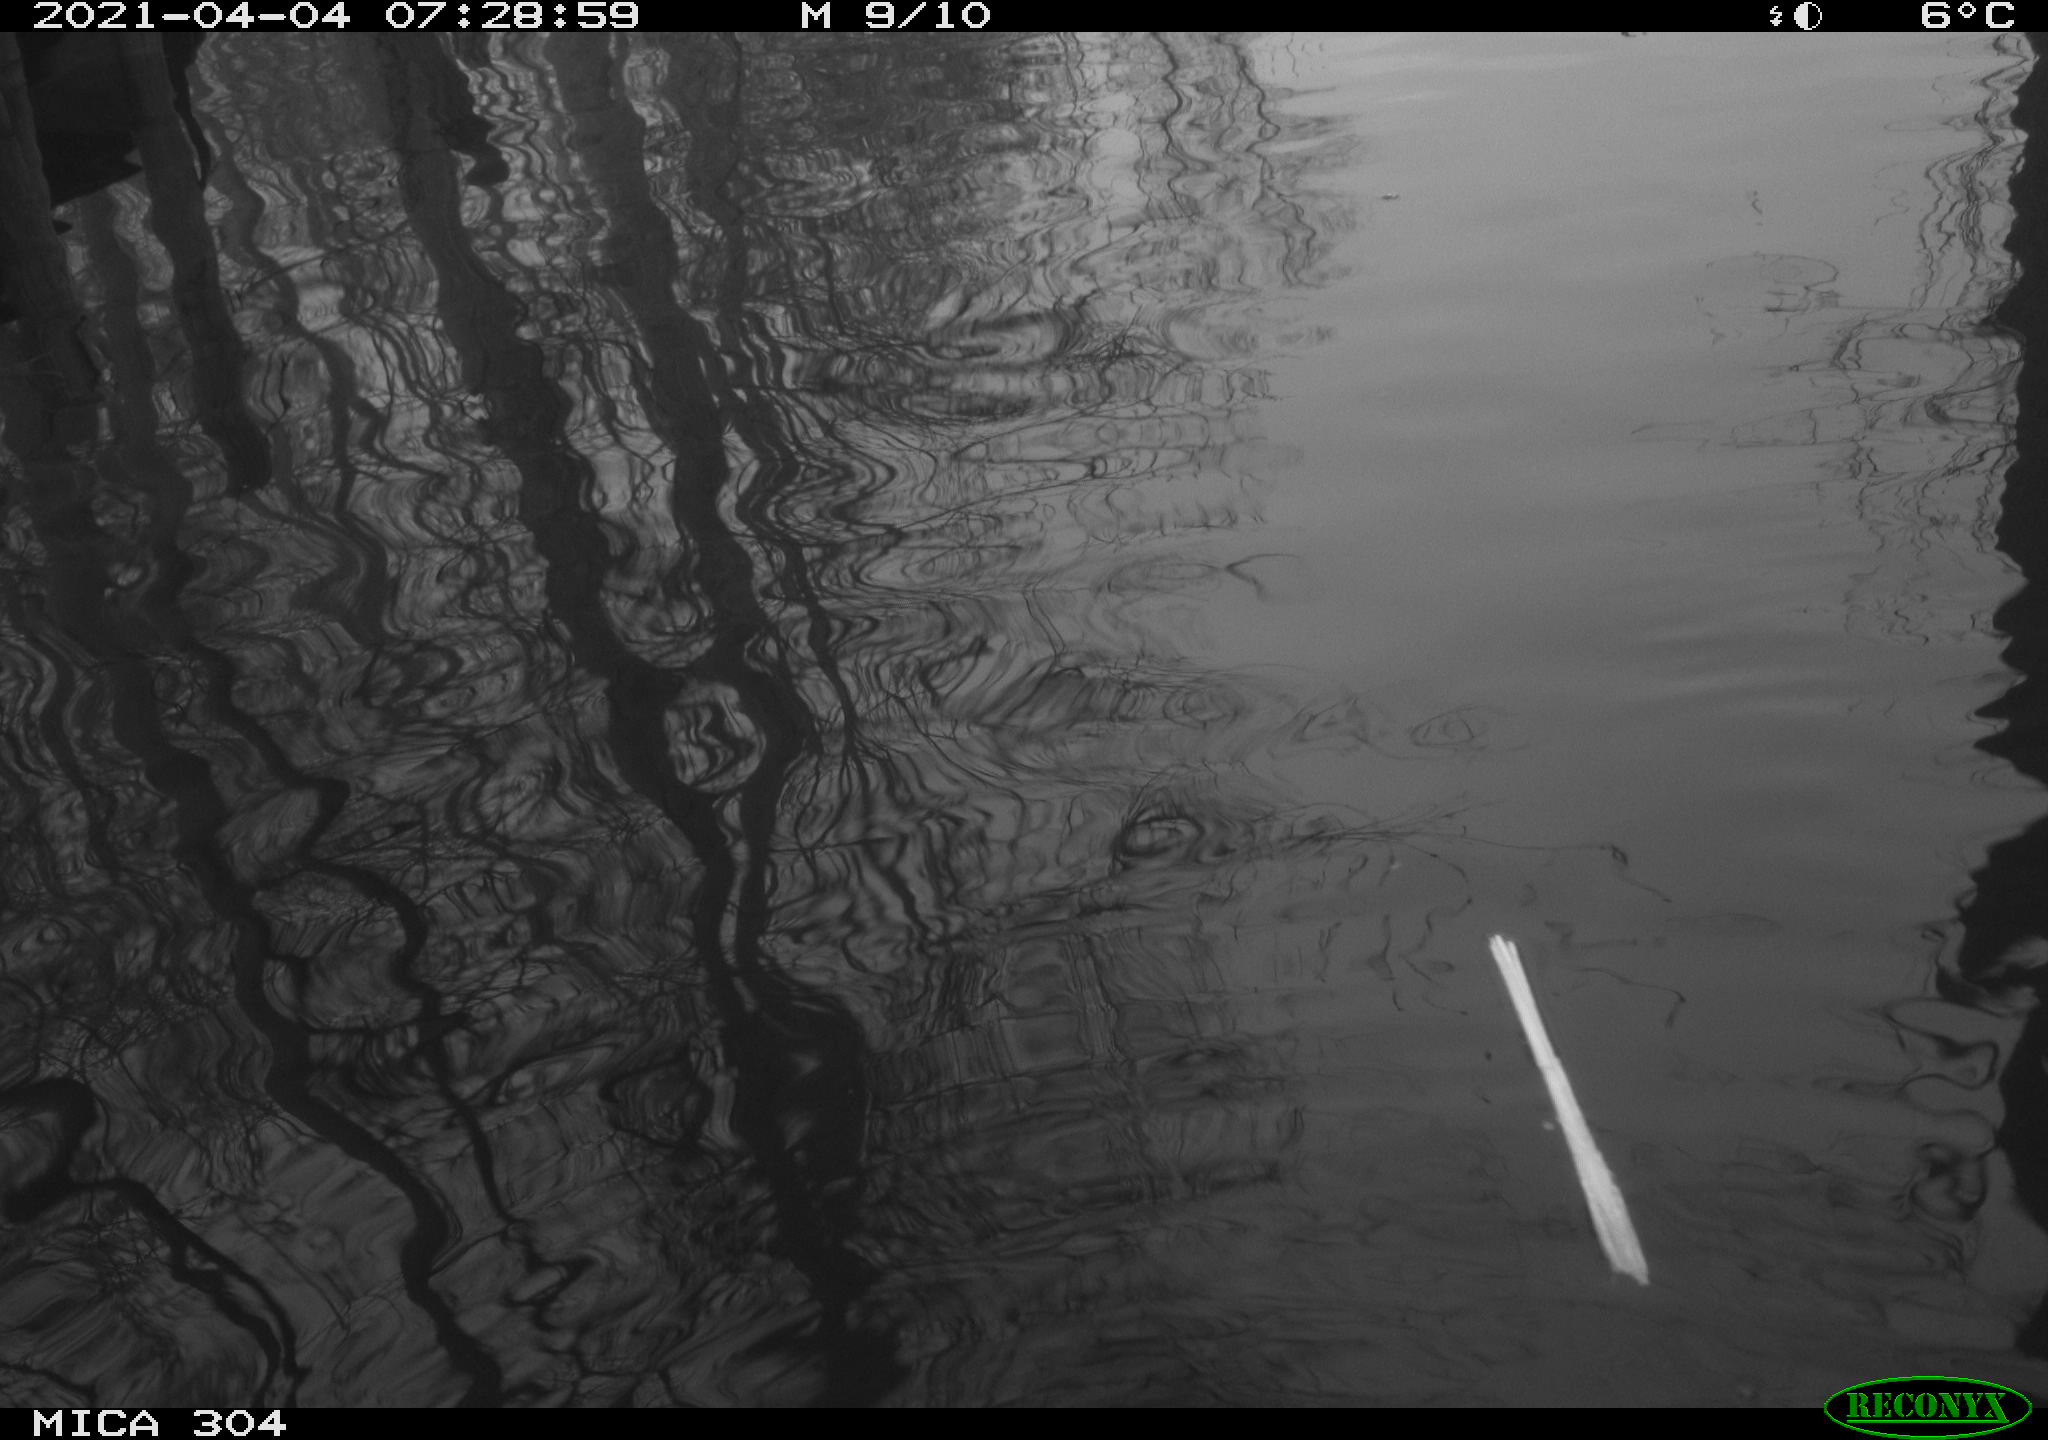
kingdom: Animalia
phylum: Chordata
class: Aves
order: Anseriformes
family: Anatidae
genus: Anas
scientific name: Anas platyrhynchos
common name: Mallard
